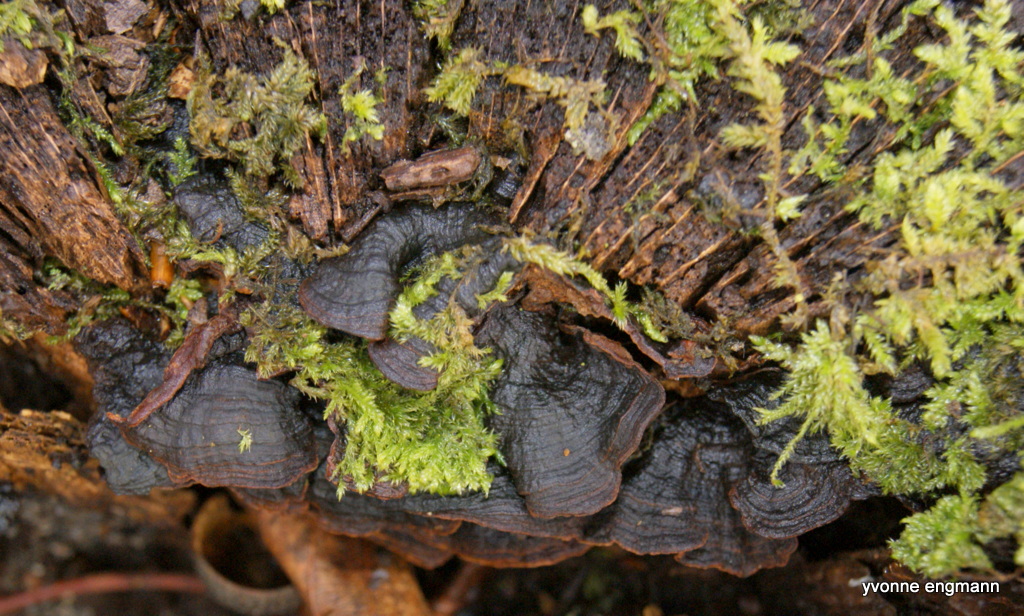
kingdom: Fungi
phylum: Basidiomycota
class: Agaricomycetes
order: Hymenochaetales
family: Hymenochaetaceae
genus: Hymenochaete
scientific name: Hymenochaete rubiginosa
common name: stiv ruslædersvamp
